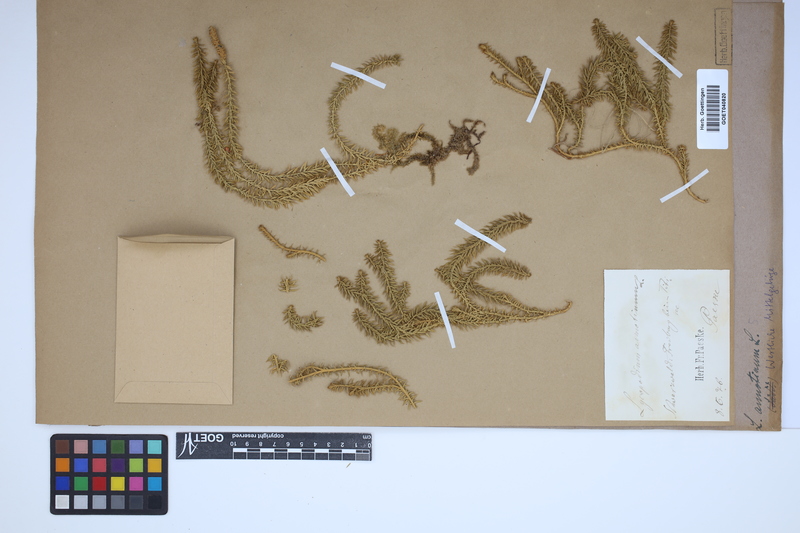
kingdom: Plantae
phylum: Tracheophyta
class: Lycopodiopsida
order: Lycopodiales
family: Lycopodiaceae
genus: Spinulum
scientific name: Spinulum annotinum
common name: Interrupted club-moss
